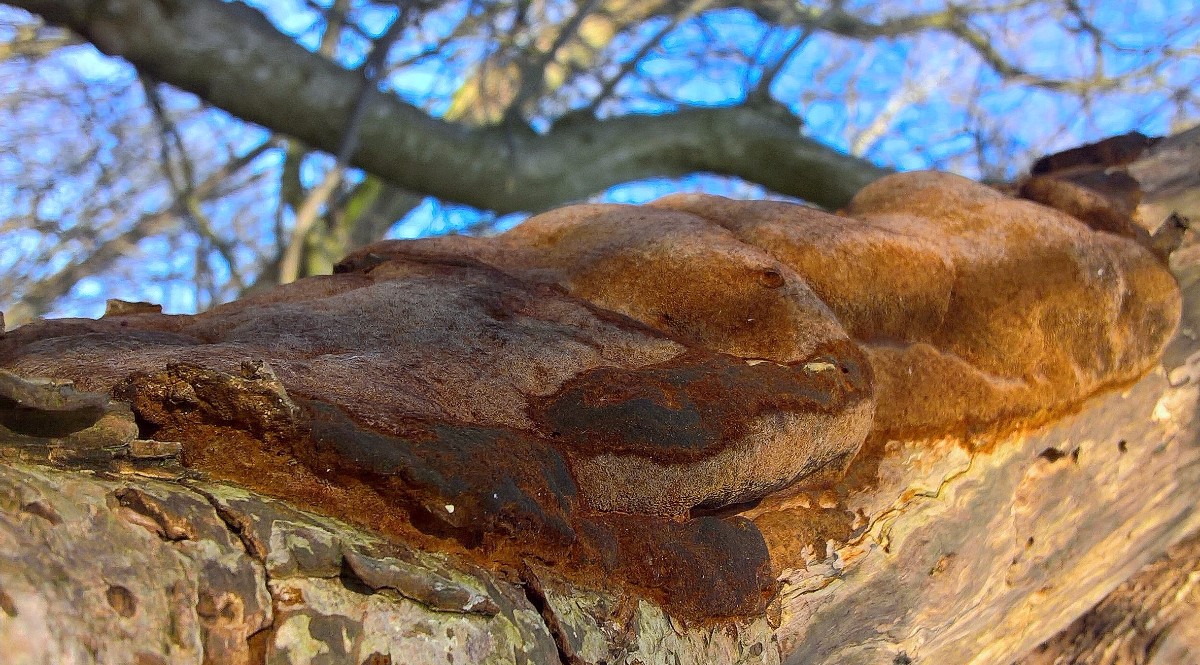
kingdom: Fungi
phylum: Basidiomycota
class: Agaricomycetes
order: Hymenochaetales
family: Hymenochaetaceae
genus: Fuscoporia
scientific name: Fuscoporia ferrea
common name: skorpe-ildporesvamp
